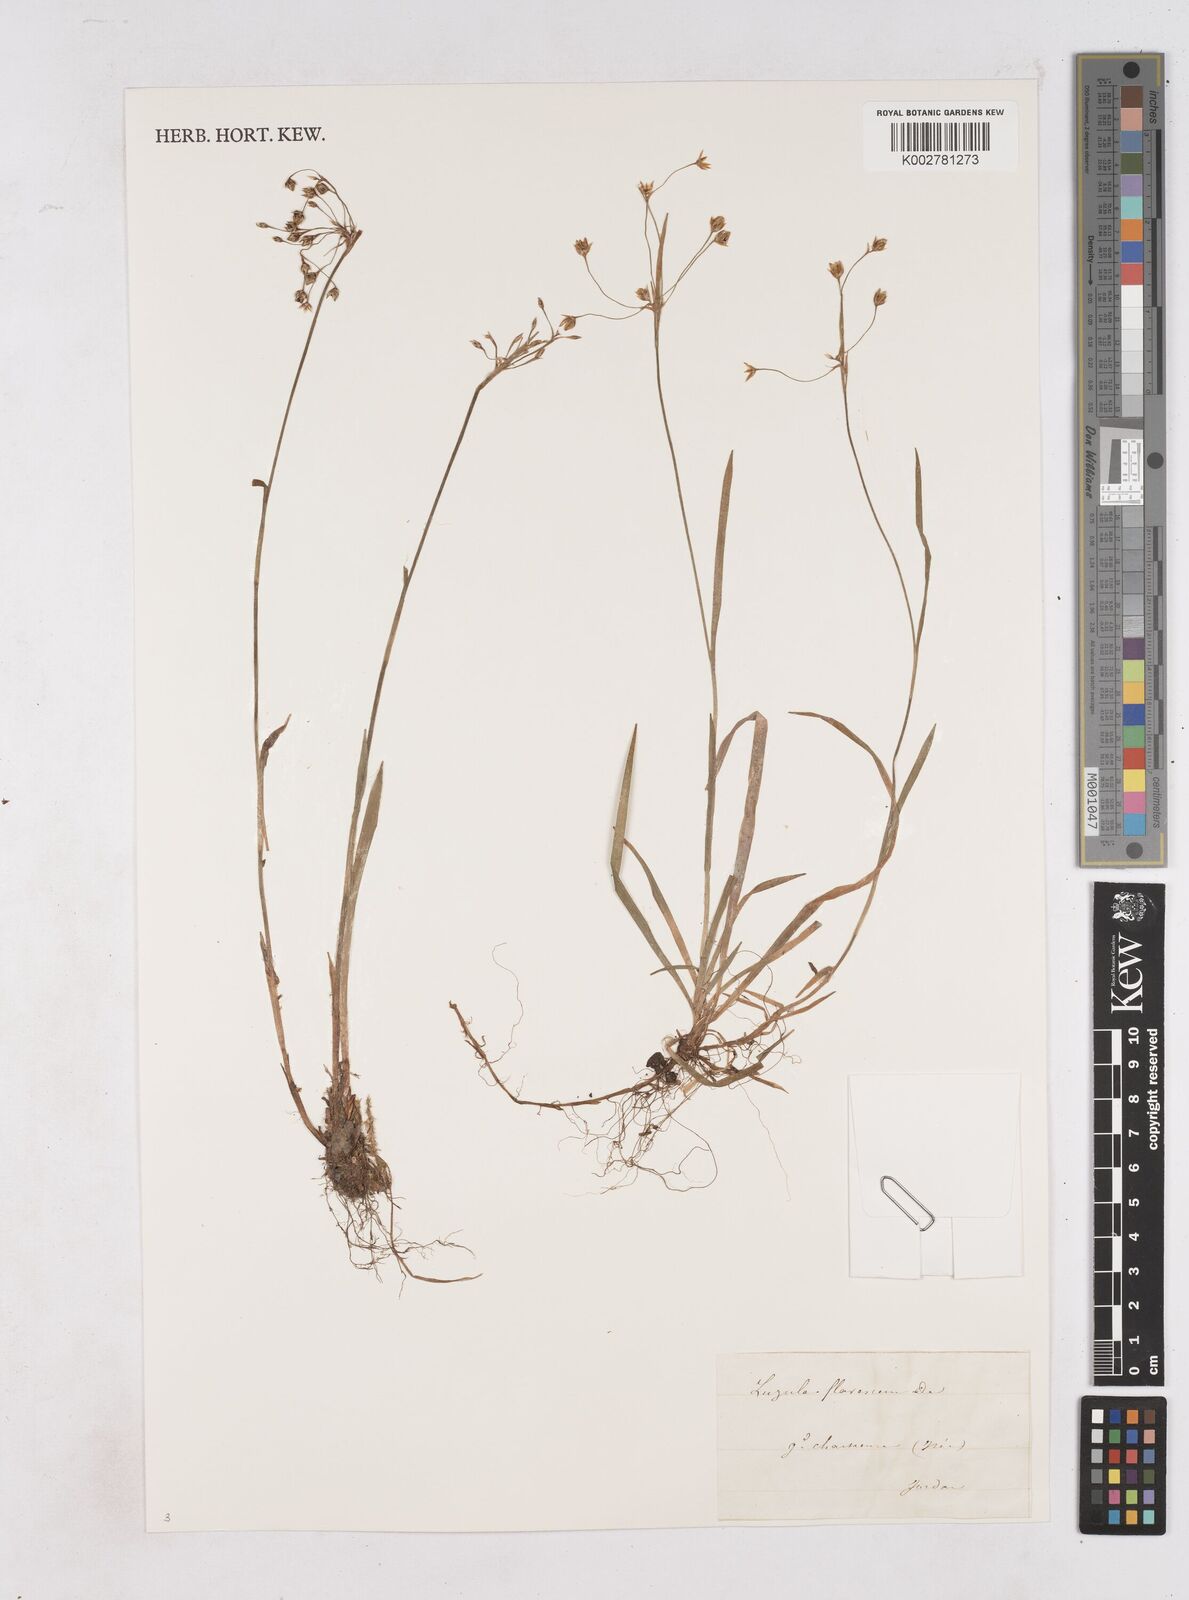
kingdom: Plantae
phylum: Tracheophyta
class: Liliopsida
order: Poales
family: Juncaceae
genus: Luzula
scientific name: Luzula luzulina
